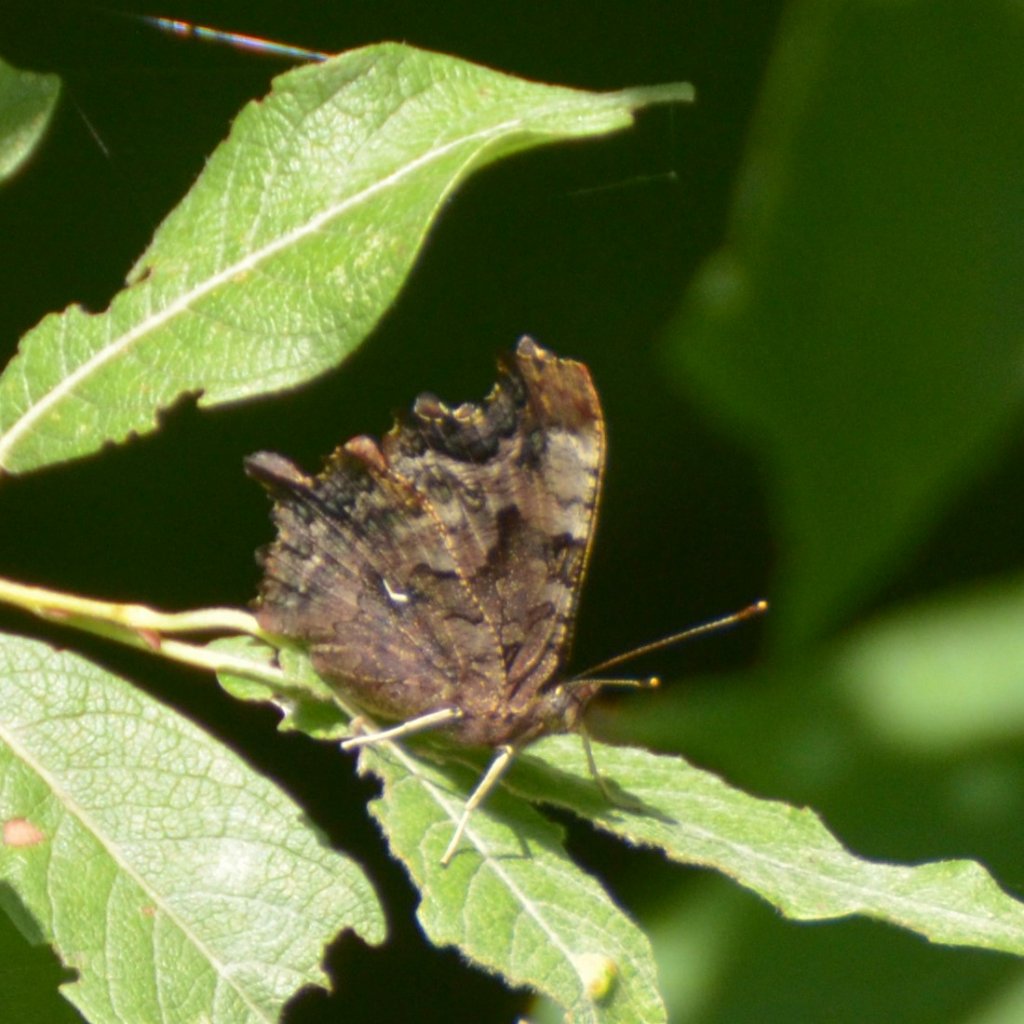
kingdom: Animalia
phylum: Arthropoda
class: Insecta
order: Lepidoptera
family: Nymphalidae
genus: Polygonia
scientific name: Polygonia faunus
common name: Green Comma
